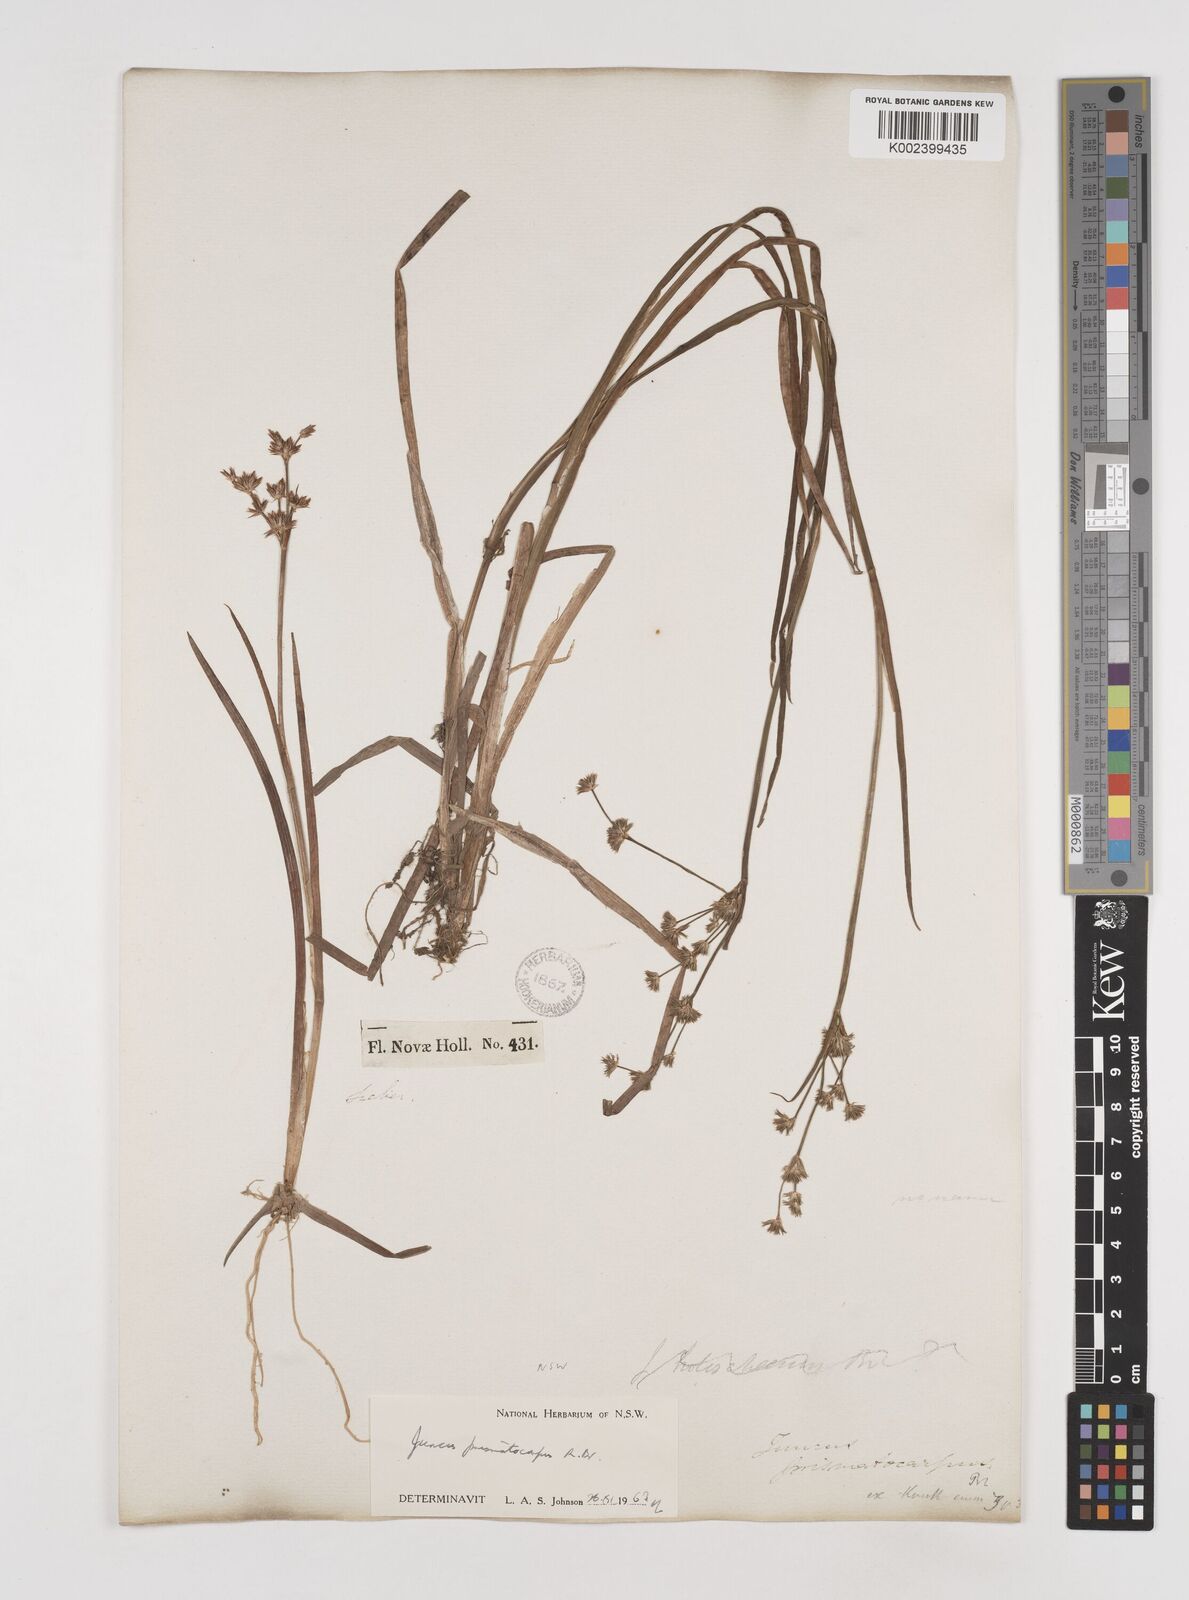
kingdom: Plantae
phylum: Tracheophyta
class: Liliopsida
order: Poales
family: Juncaceae
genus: Juncus
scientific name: Juncus prismatocarpus
